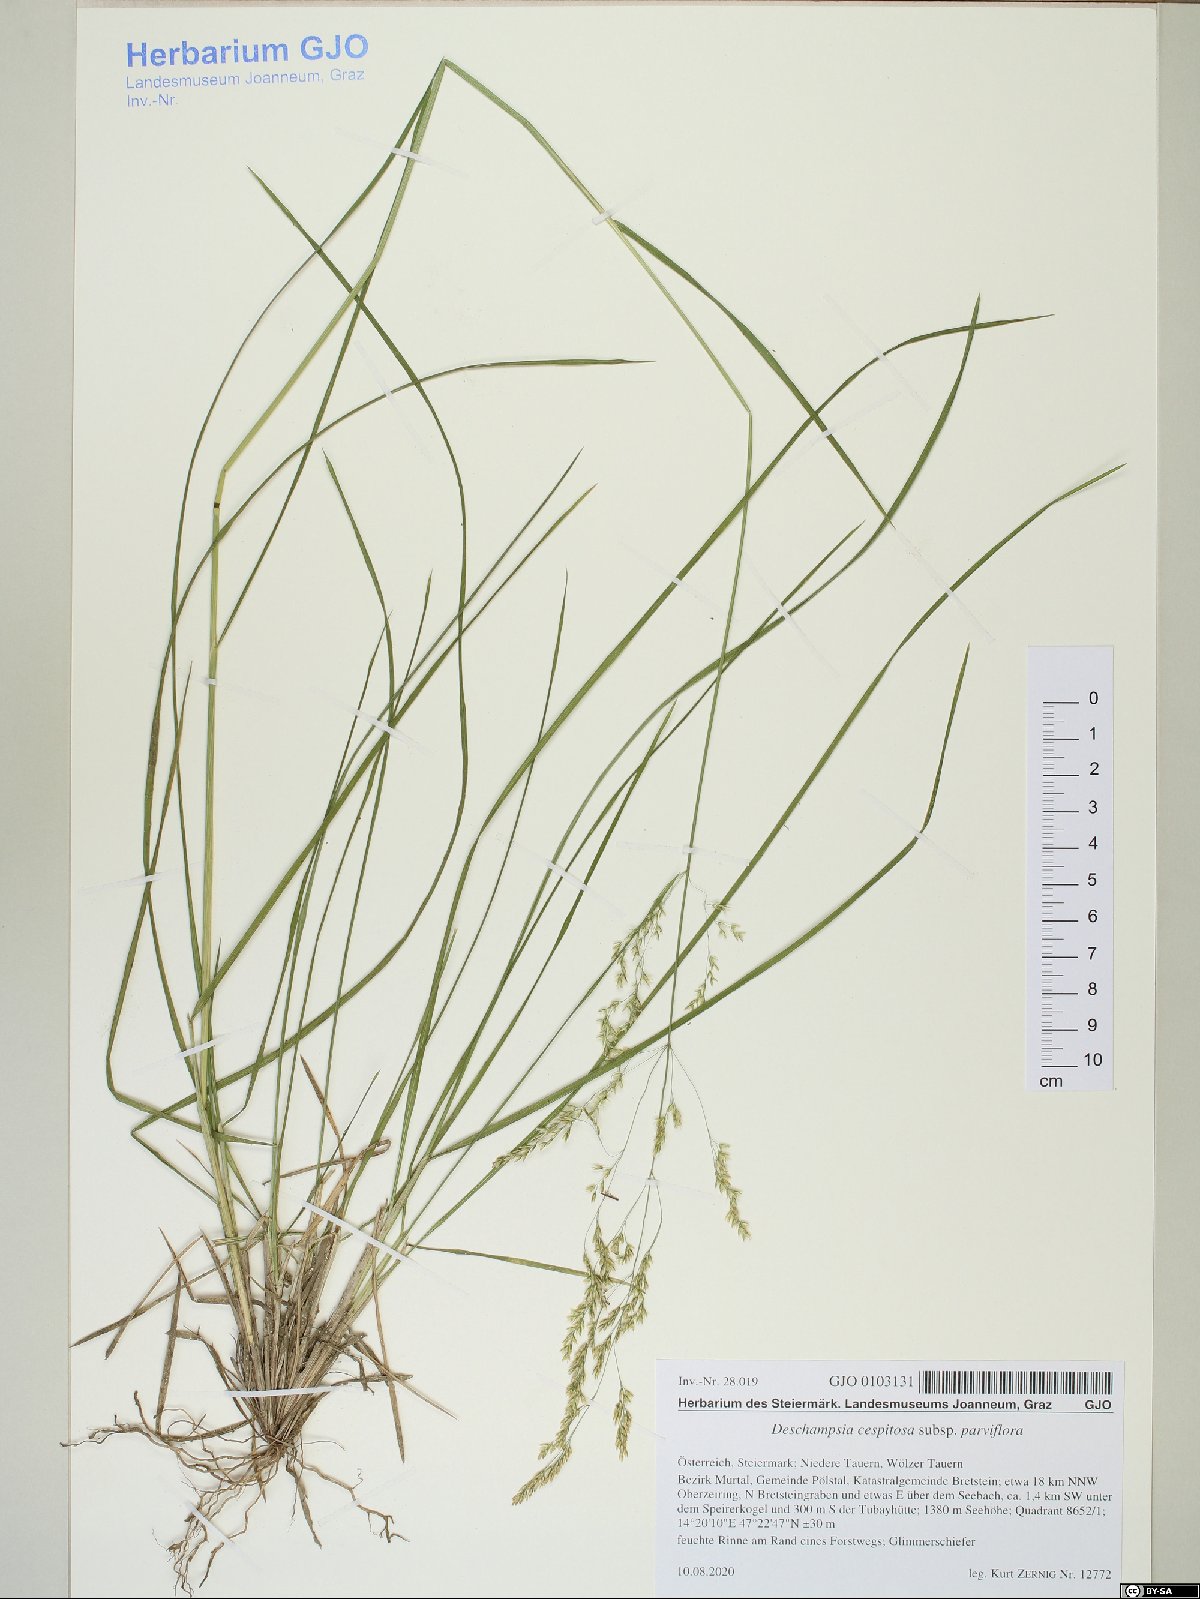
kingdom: Plantae
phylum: Tracheophyta
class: Liliopsida
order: Poales
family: Poaceae
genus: Deschampsia
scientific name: Deschampsia cespitosa
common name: Tufted hair-grass
